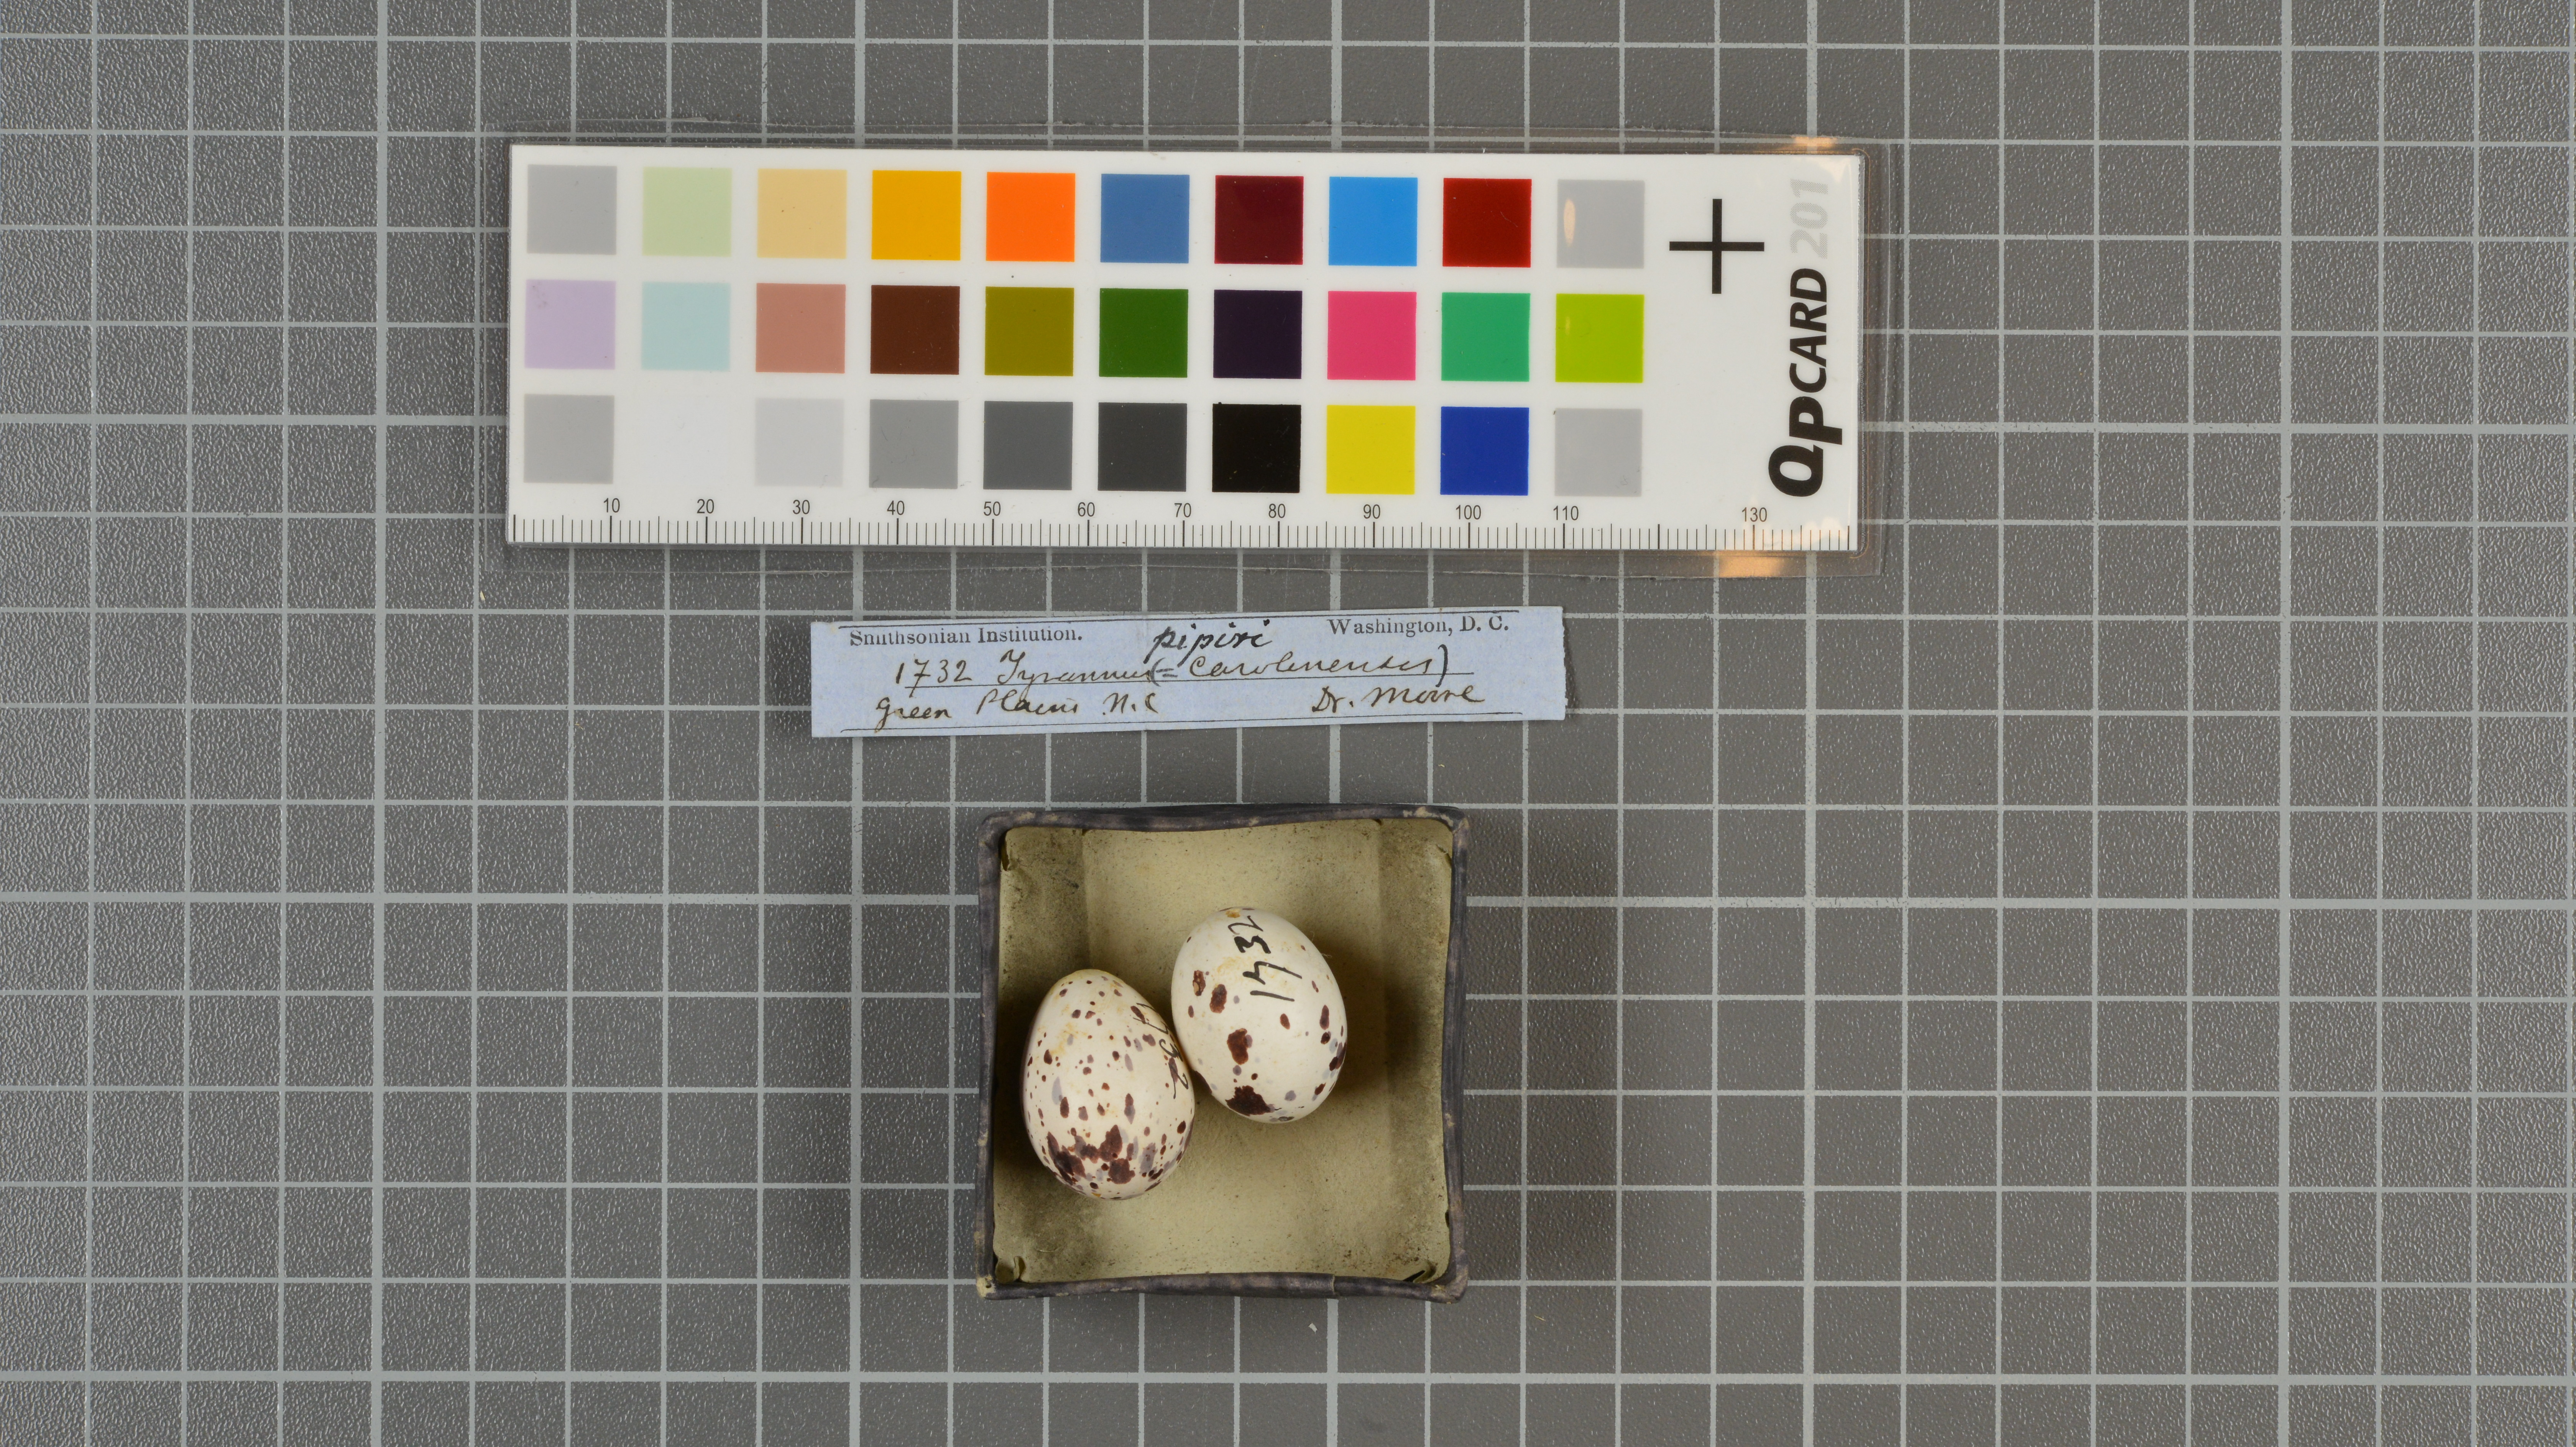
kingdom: Animalia
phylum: Chordata
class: Aves
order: Passeriformes
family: Tyrannidae
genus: Tyrannus
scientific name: Tyrannus dominicensis
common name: Gray kingbird
